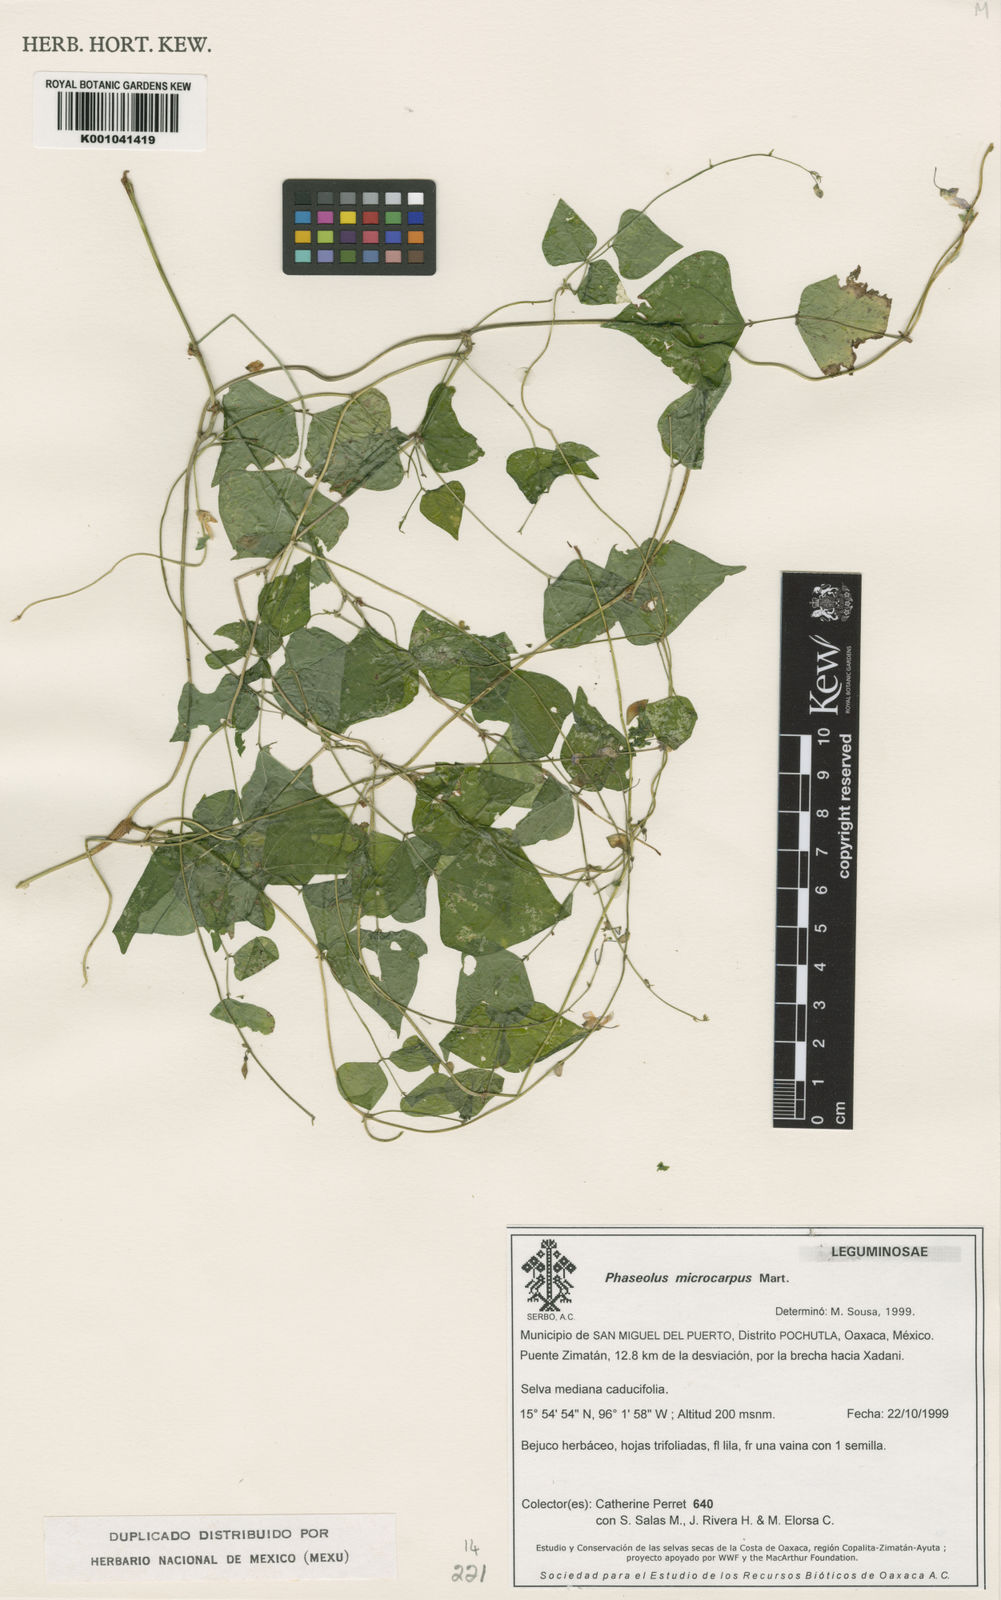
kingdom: Plantae
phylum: Tracheophyta
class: Magnoliopsida
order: Fabales
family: Fabaceae
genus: Phaseolus
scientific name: Phaseolus microcarpus
